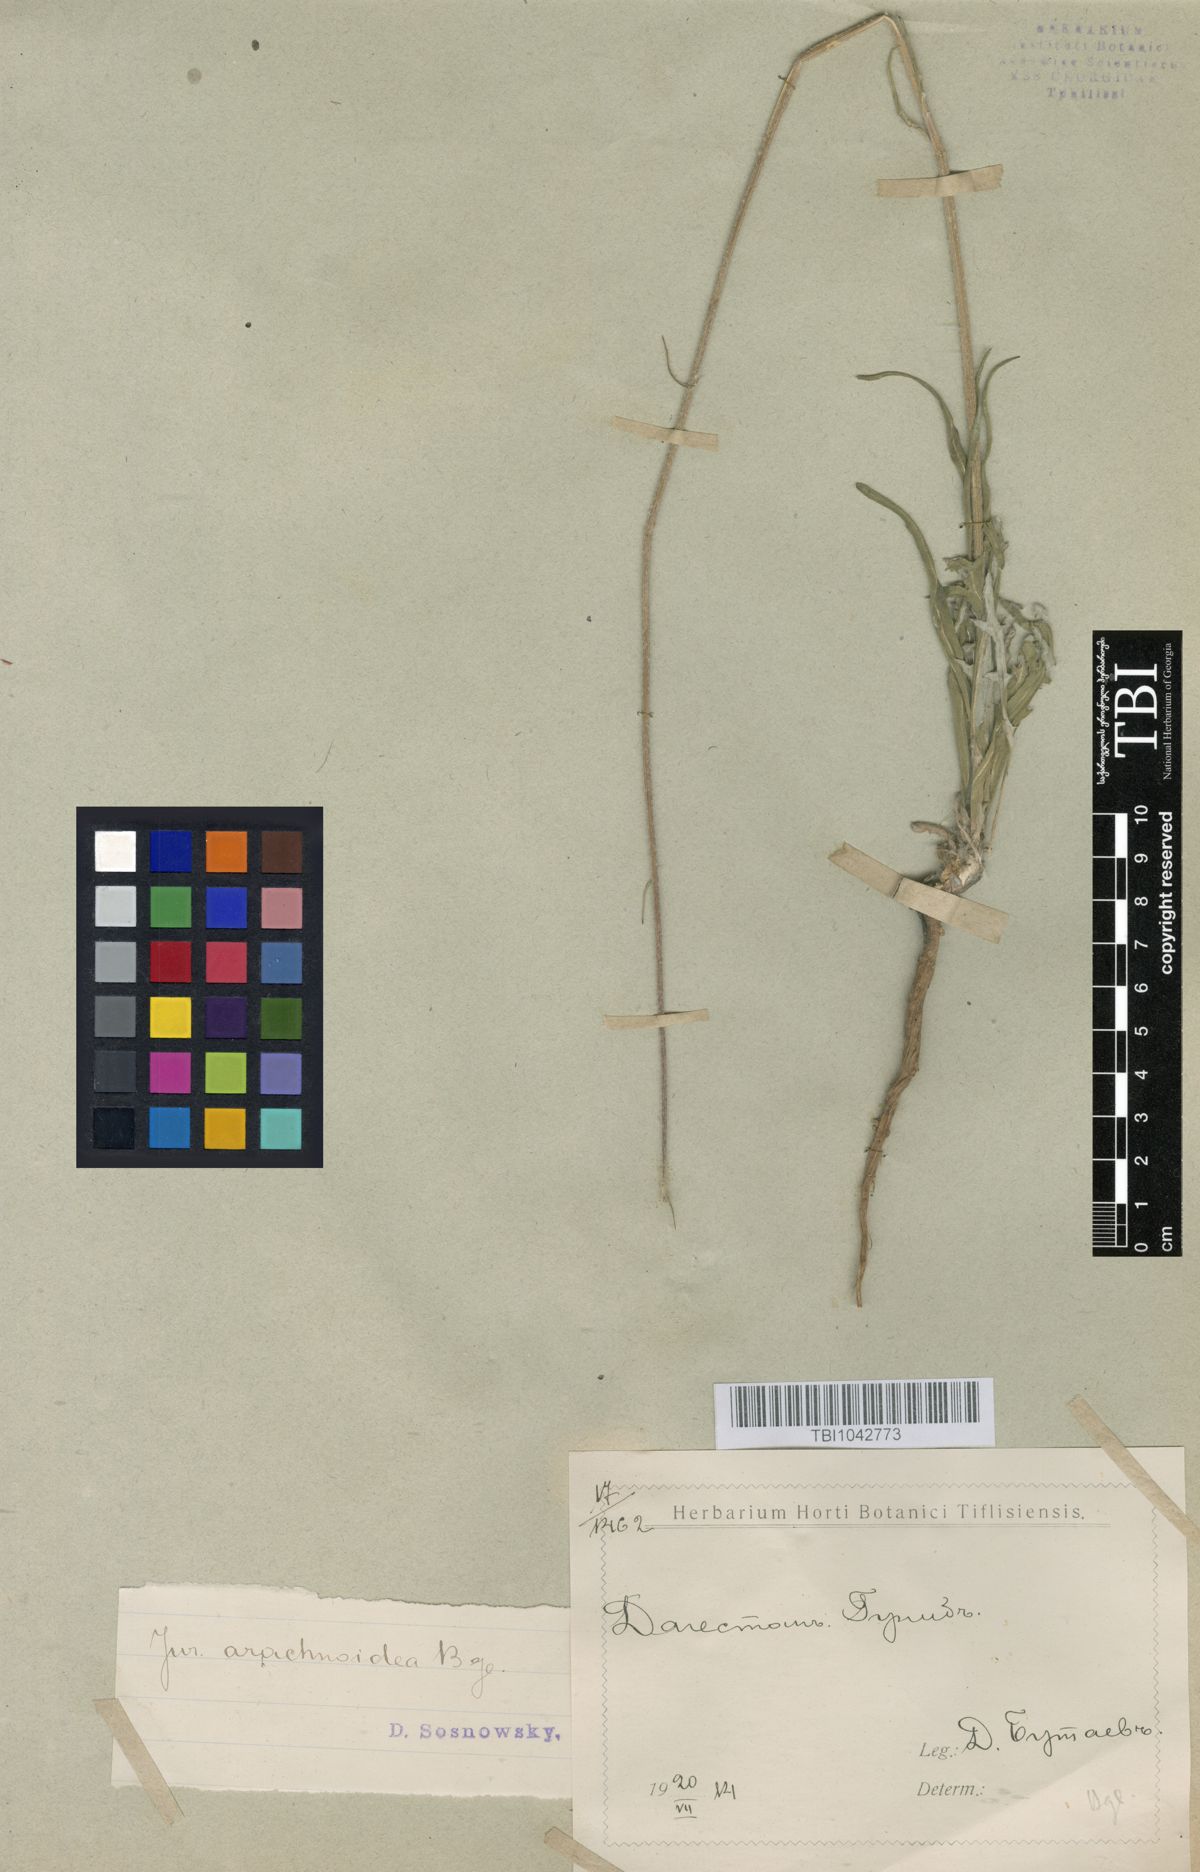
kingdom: Plantae
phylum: Tracheophyta
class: Magnoliopsida
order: Asterales
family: Asteraceae
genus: Jurinea
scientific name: Jurinea blanda
